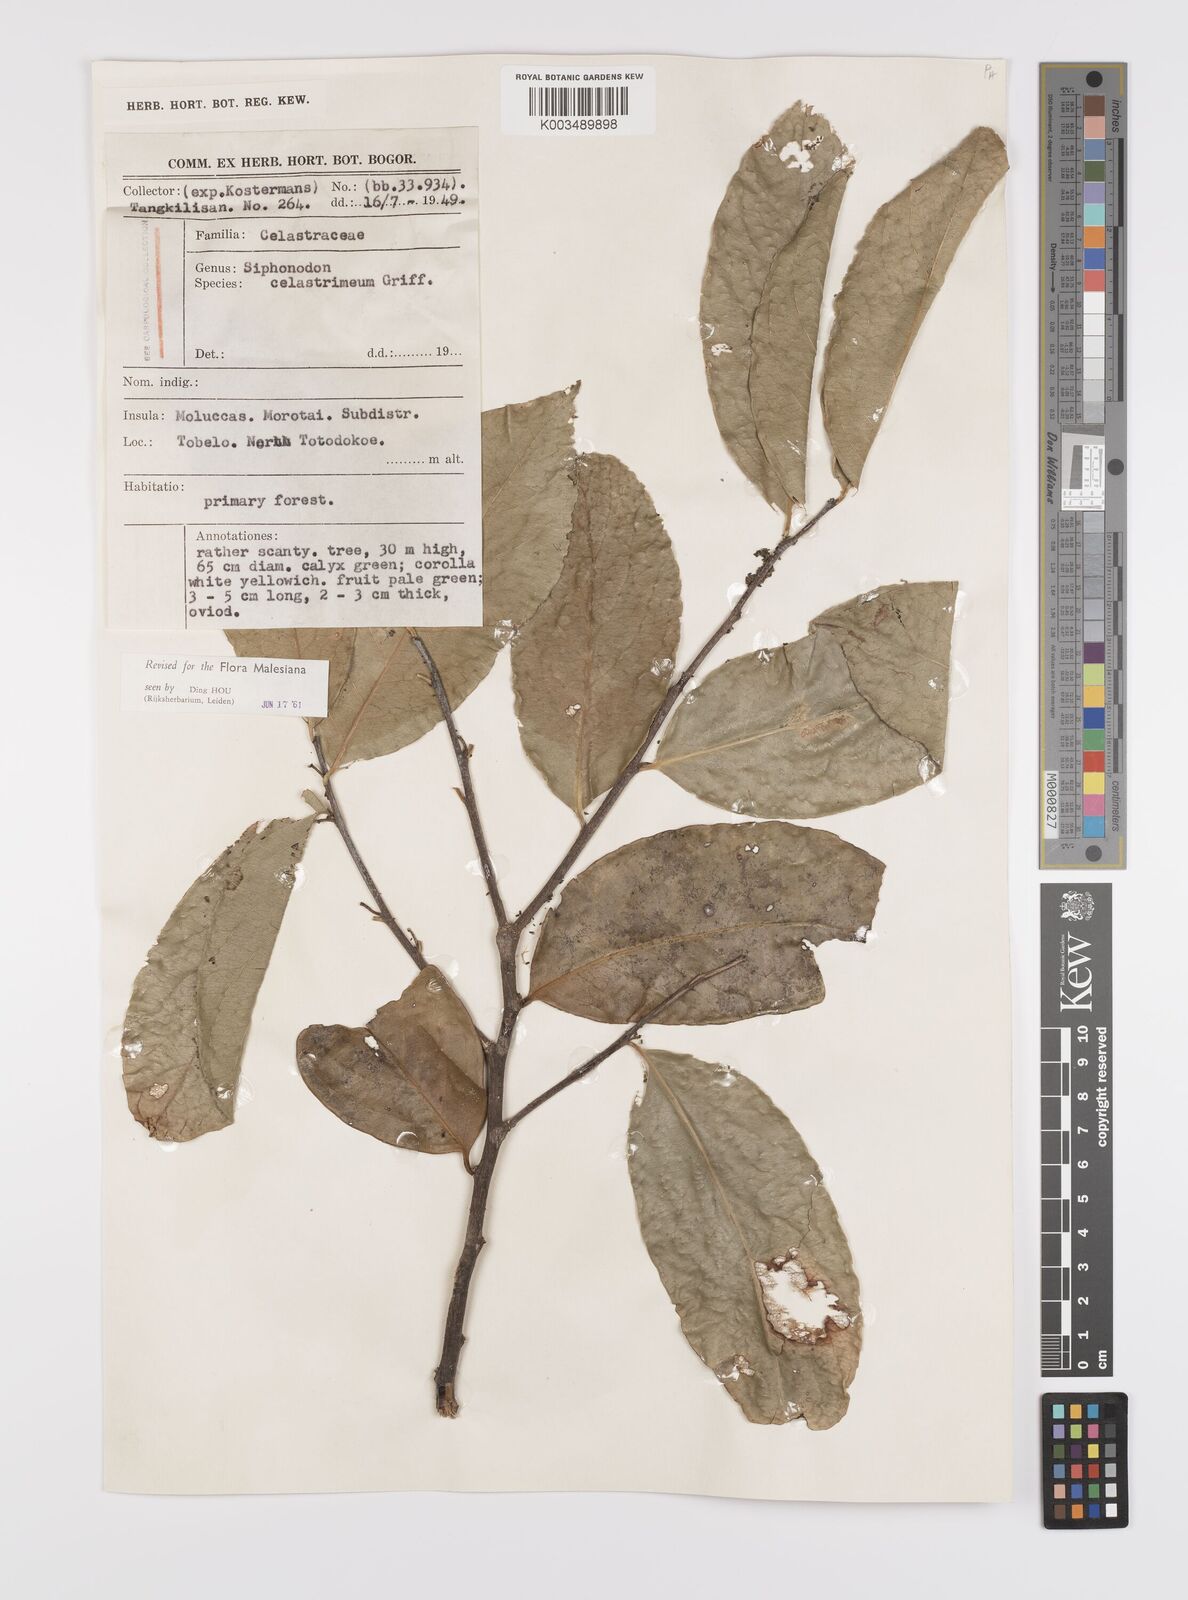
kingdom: Plantae
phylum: Tracheophyta
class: Magnoliopsida
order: Celastrales
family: Celastraceae
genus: Siphonodon
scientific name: Siphonodon celastrineus
